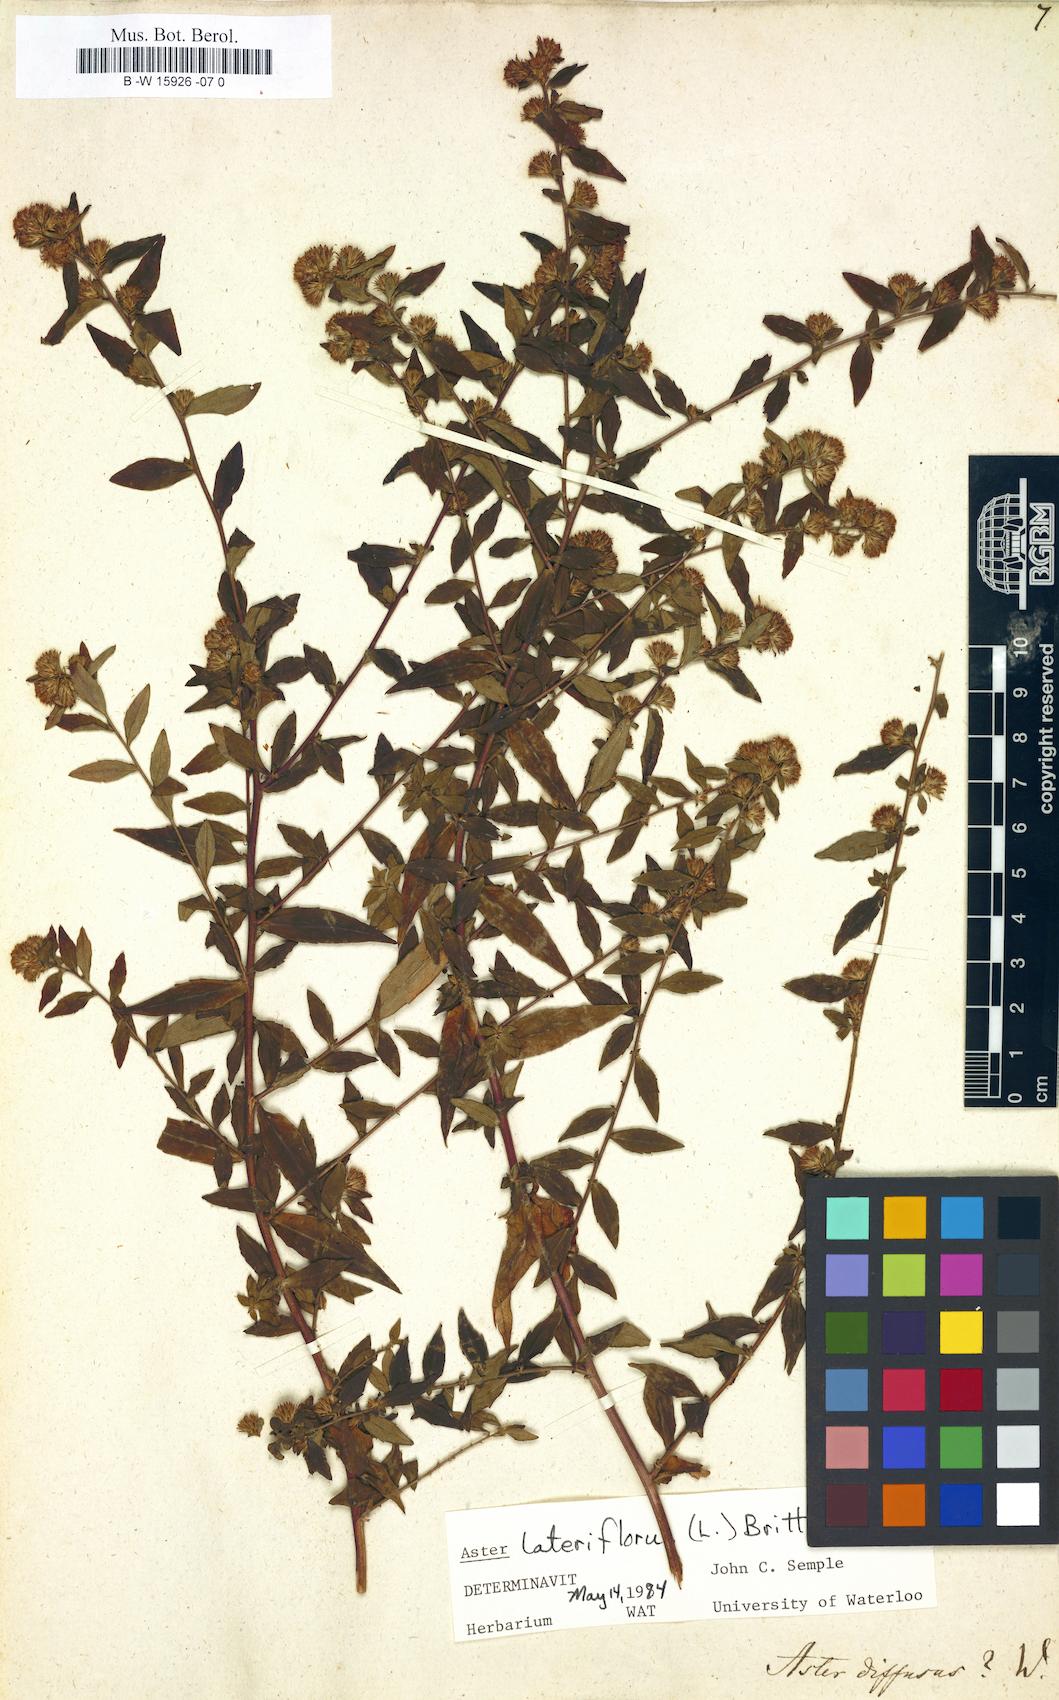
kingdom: Plantae
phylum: Tracheophyta
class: Magnoliopsida
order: Asterales
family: Asteraceae
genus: Aster
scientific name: Aster diffusus
